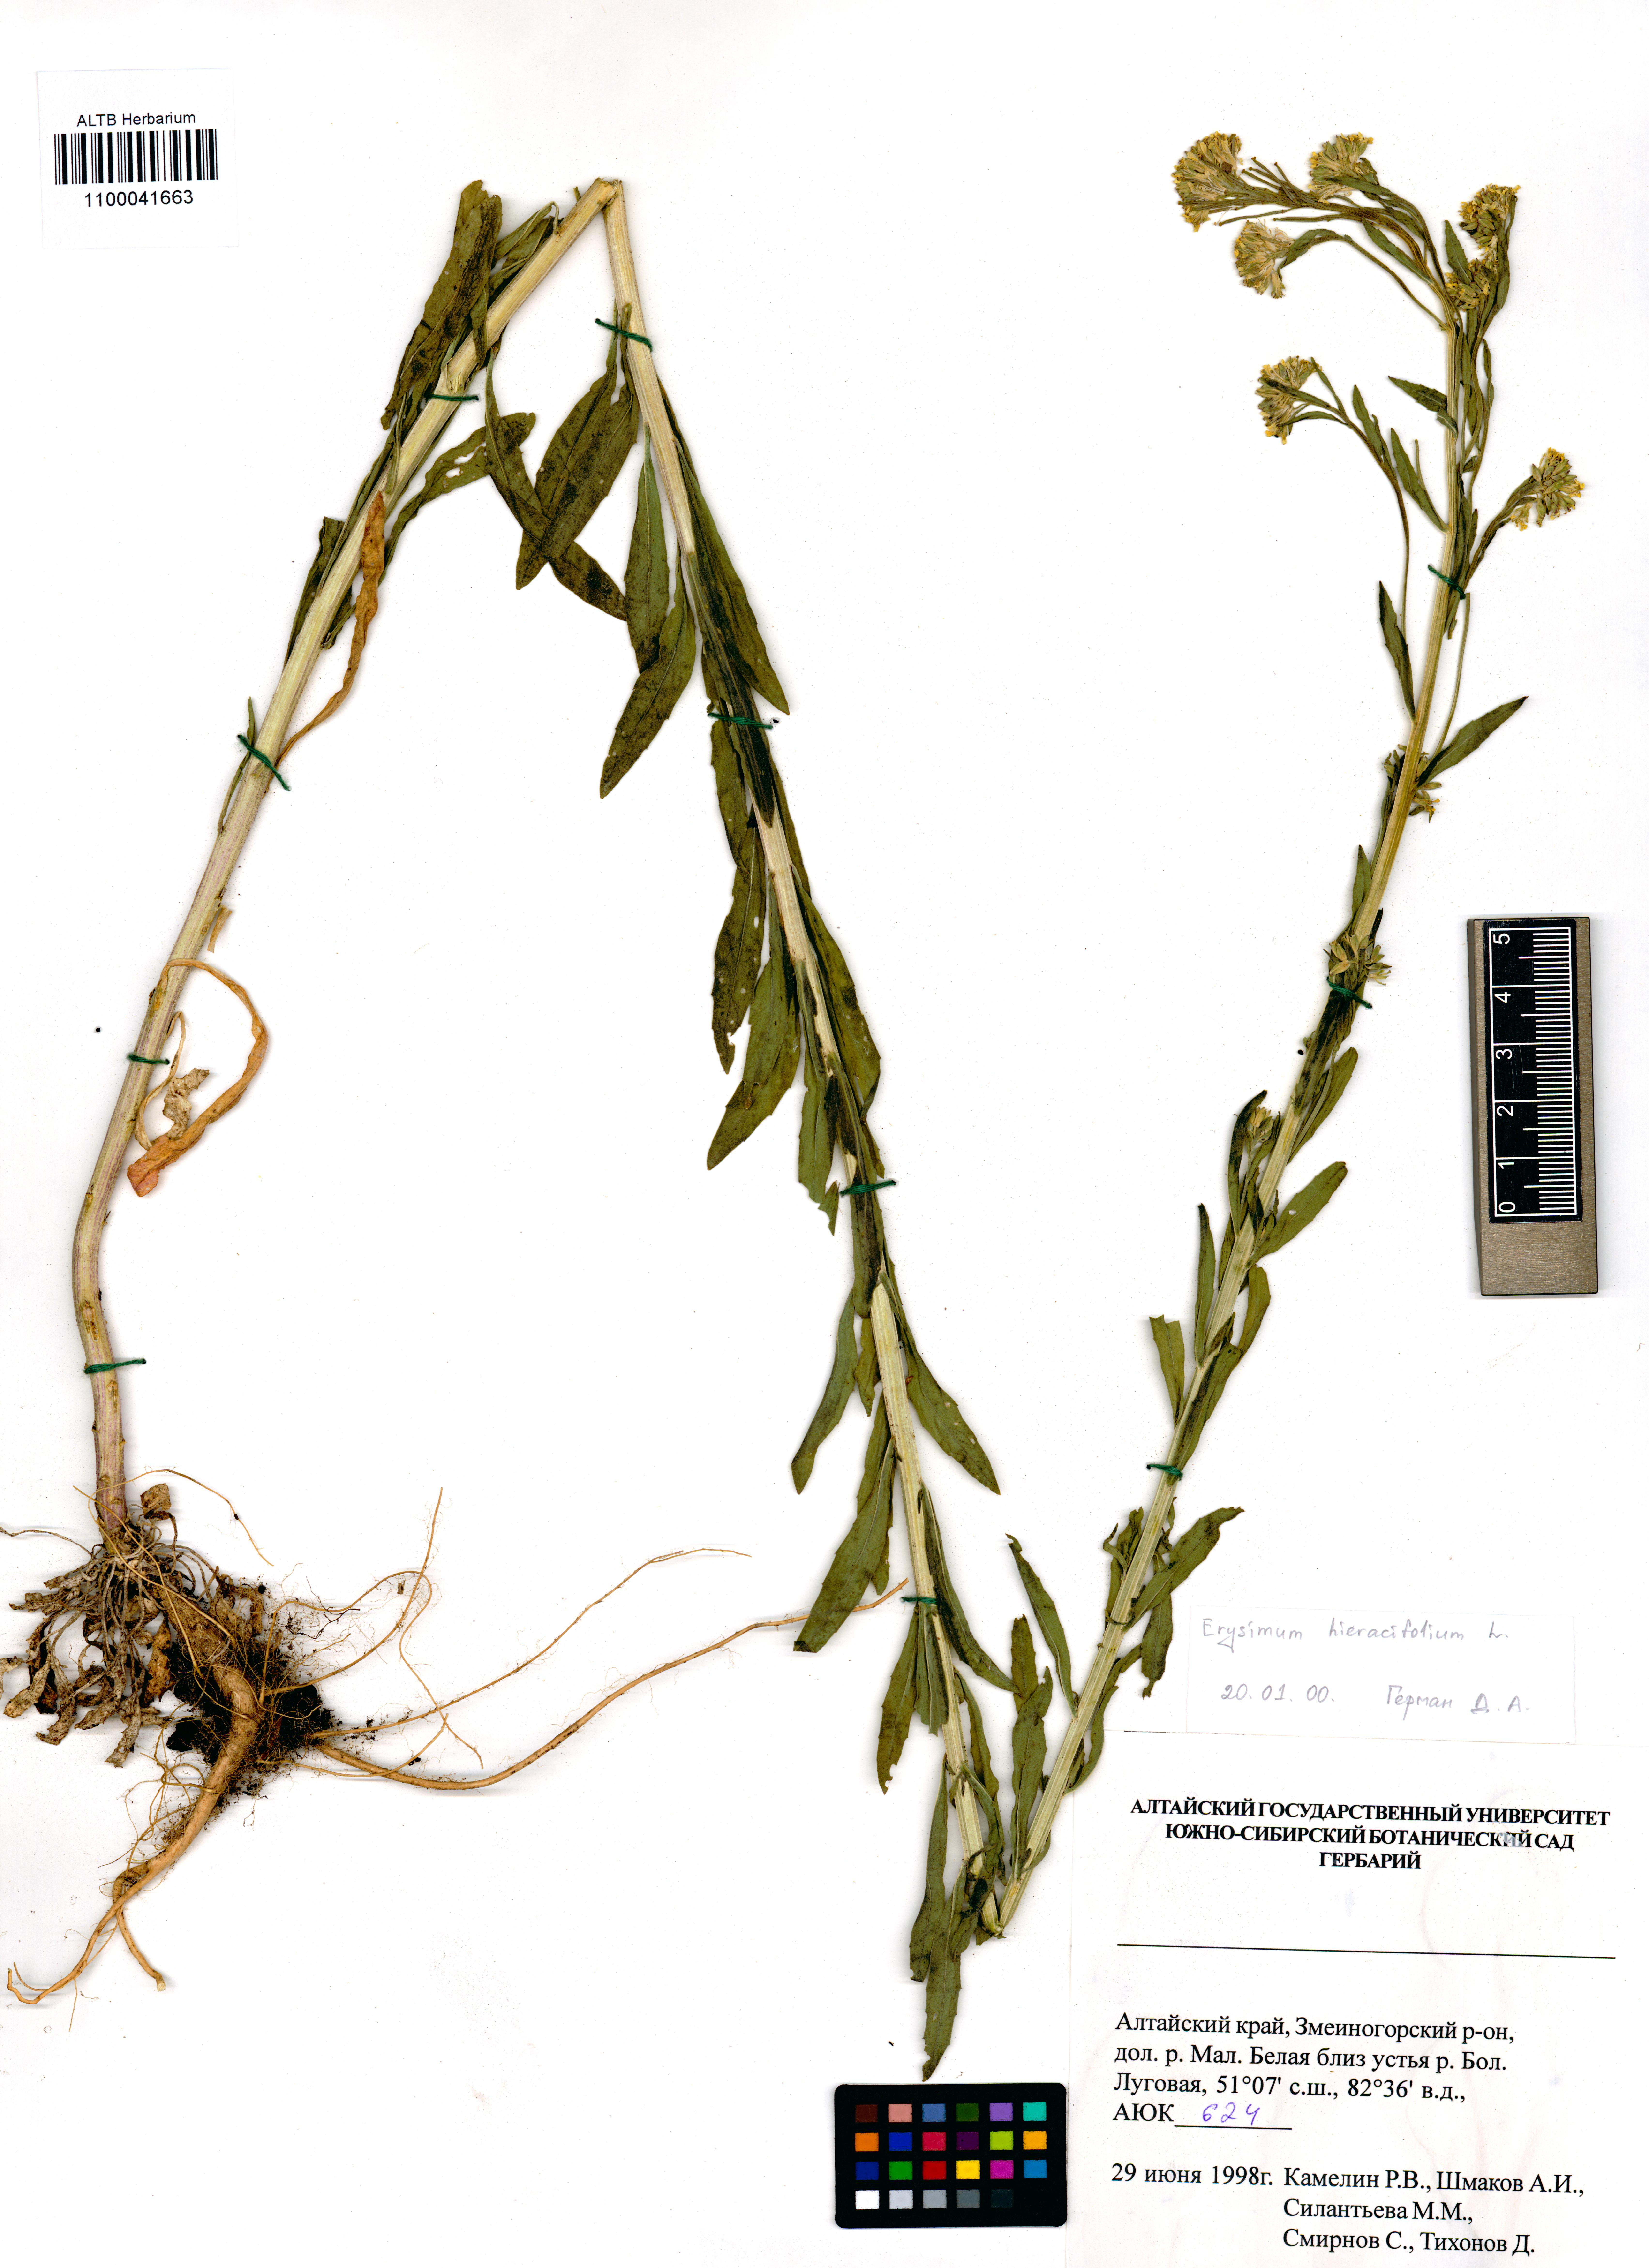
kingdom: Plantae
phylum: Tracheophyta
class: Magnoliopsida
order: Brassicales
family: Brassicaceae
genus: Erysimum
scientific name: Erysimum hieraciifolium
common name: European wallflower
